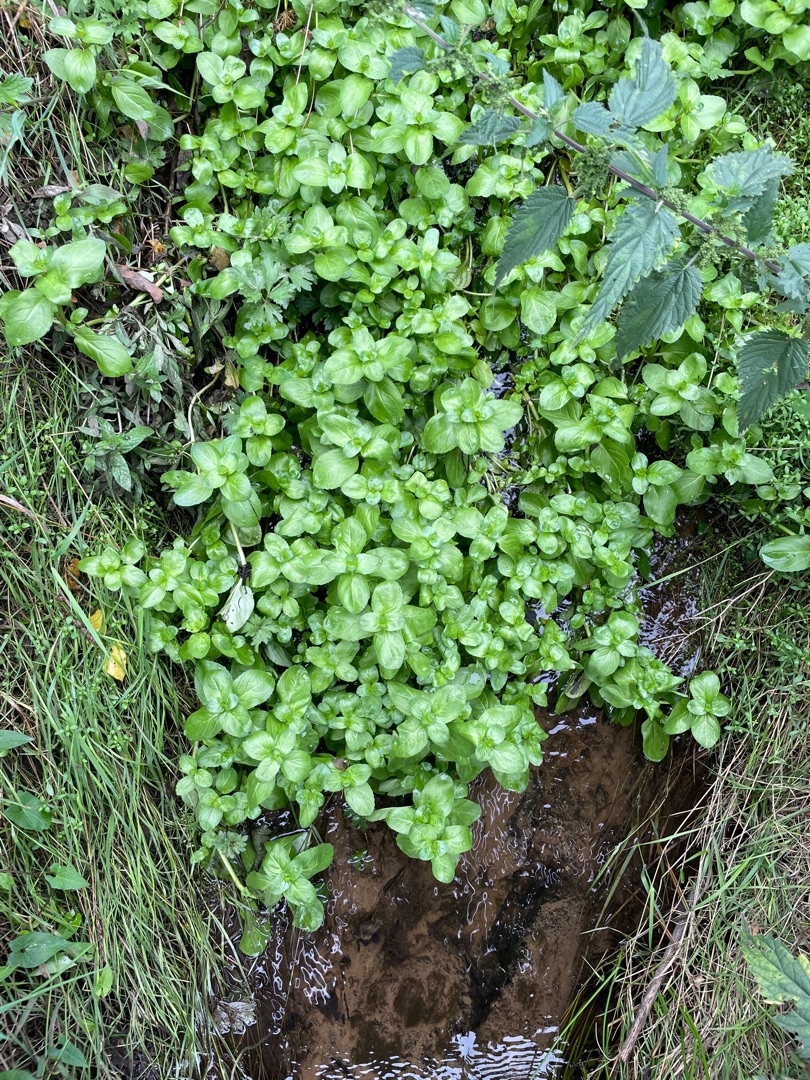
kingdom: Plantae
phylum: Tracheophyta
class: Magnoliopsida
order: Lamiales
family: Plantaginaceae
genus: Veronica
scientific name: Veronica beccabunga
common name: Tykbladet ærenpris
